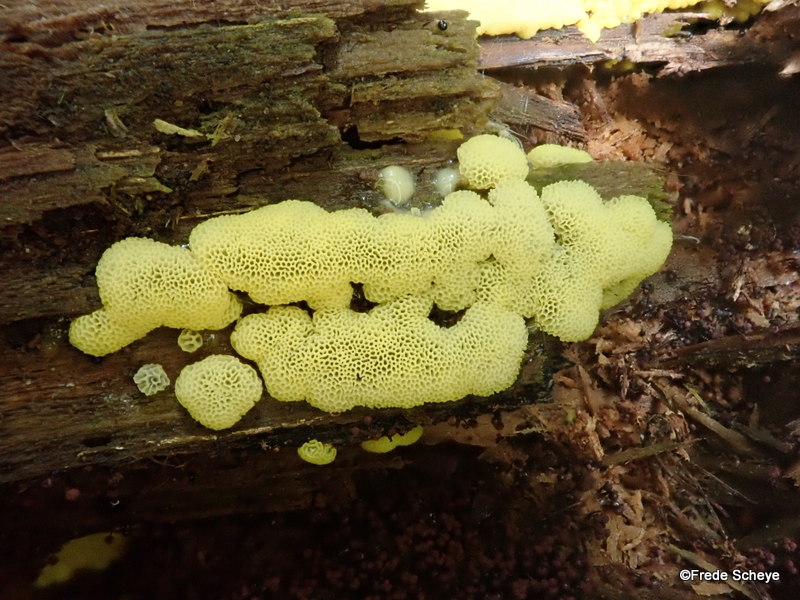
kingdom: Protozoa
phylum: Mycetozoa
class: Protosteliomycetes
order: Ceratiomyxales
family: Ceratiomyxaceae
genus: Ceratiomyxa
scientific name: Ceratiomyxa fruticulosa
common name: Honeycomb coral slime mold
